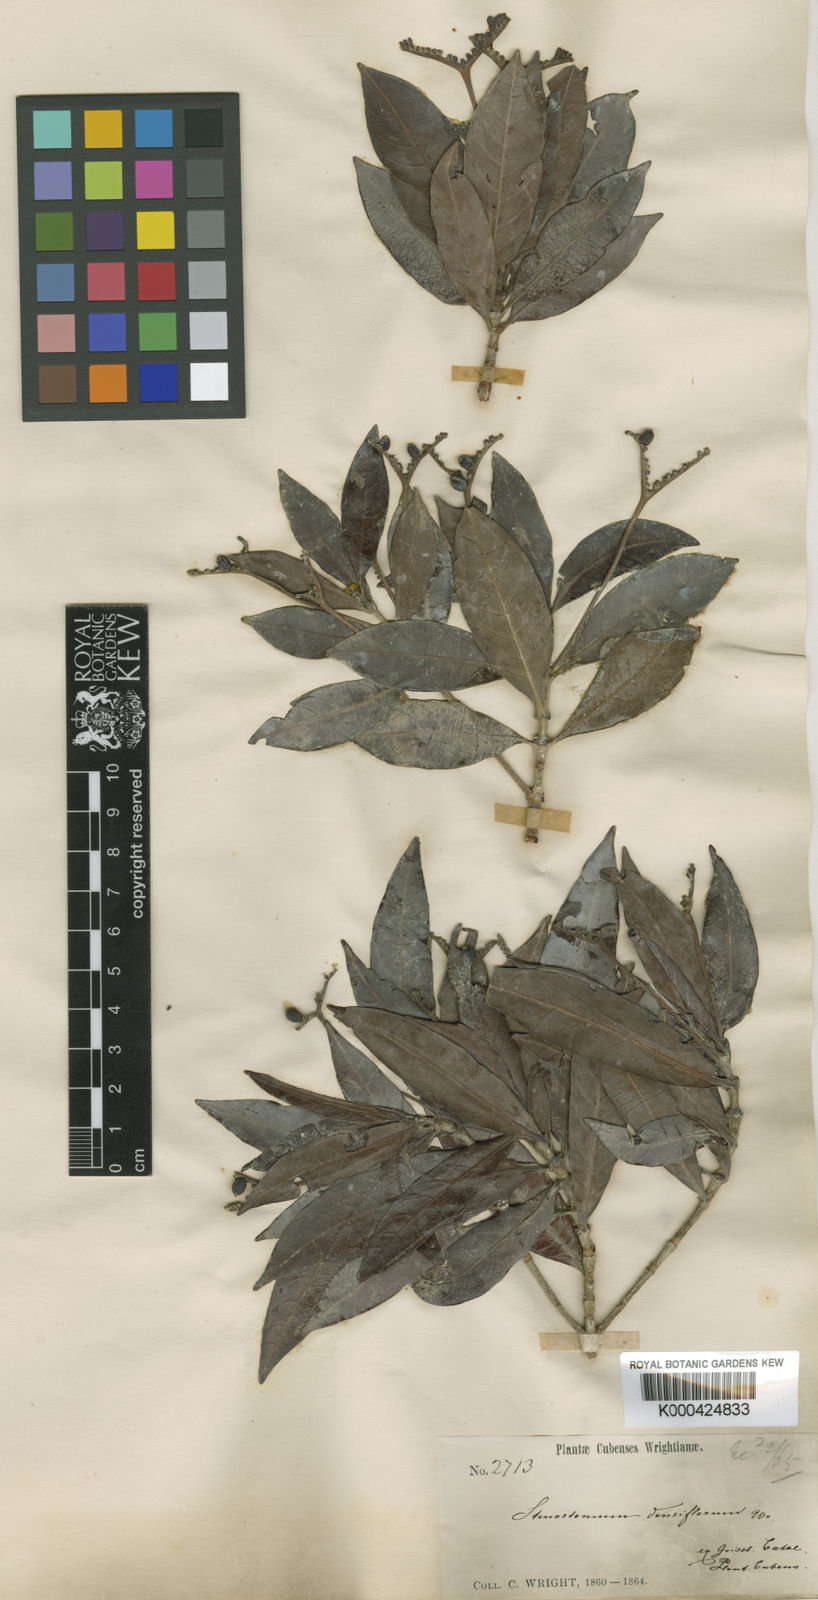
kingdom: Plantae
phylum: Tracheophyta
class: Magnoliopsida
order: Gentianales
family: Rubiaceae
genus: Stenostomum
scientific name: Stenostomum densiflorum
